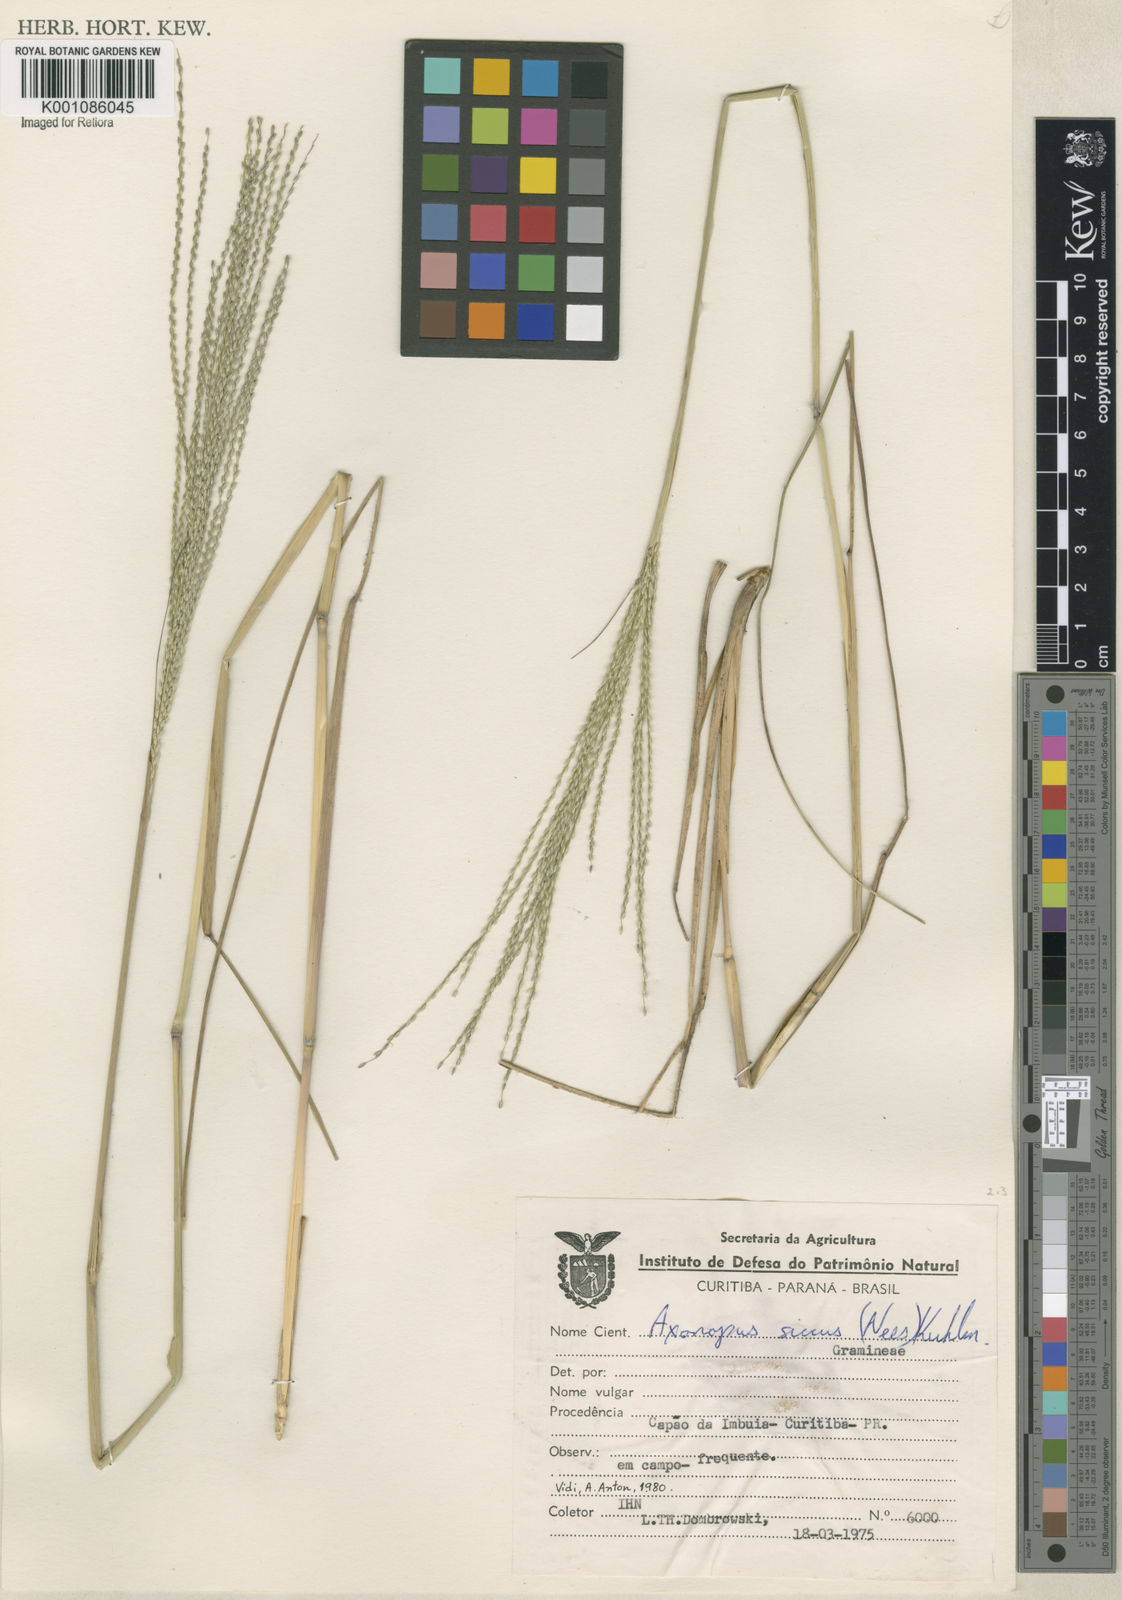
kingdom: Plantae
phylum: Tracheophyta
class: Liliopsida
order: Poales
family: Poaceae
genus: Axonopus
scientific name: Axonopus siccus
